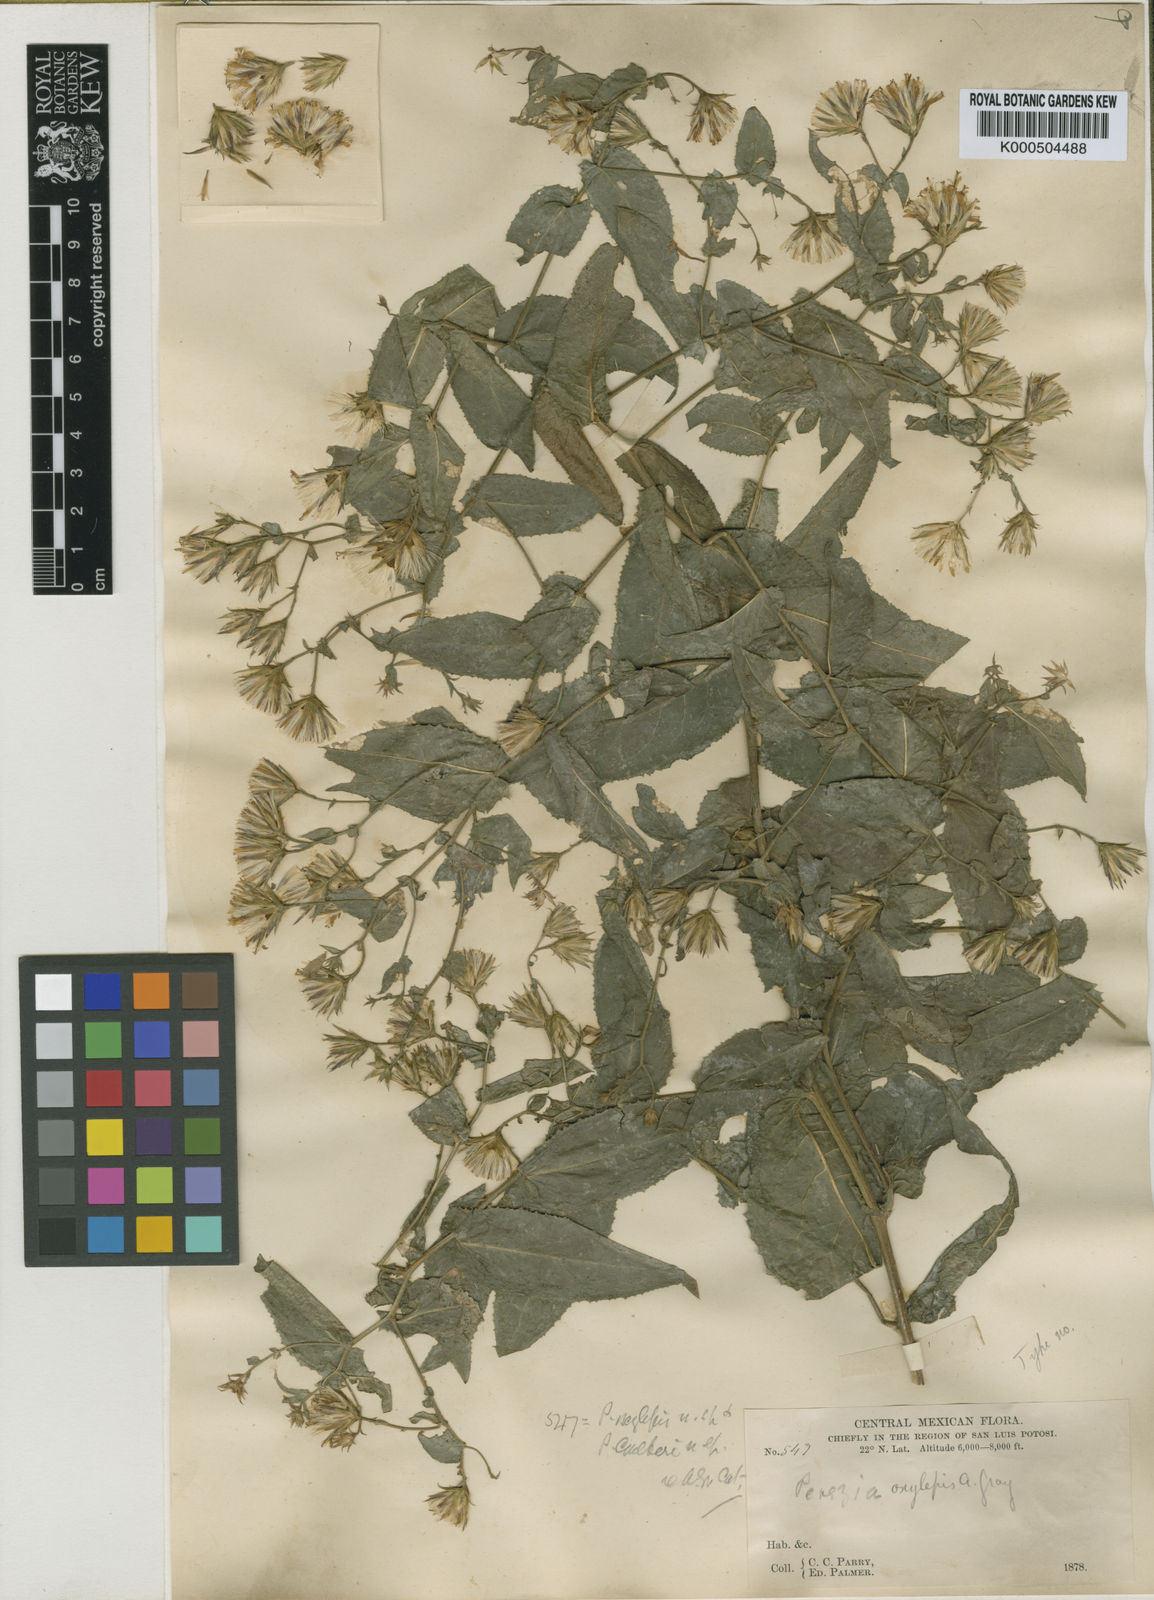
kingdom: Plantae
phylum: Tracheophyta
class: Magnoliopsida
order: Asterales
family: Asteraceae
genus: Acourtia
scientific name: Acourtia oxylepis
